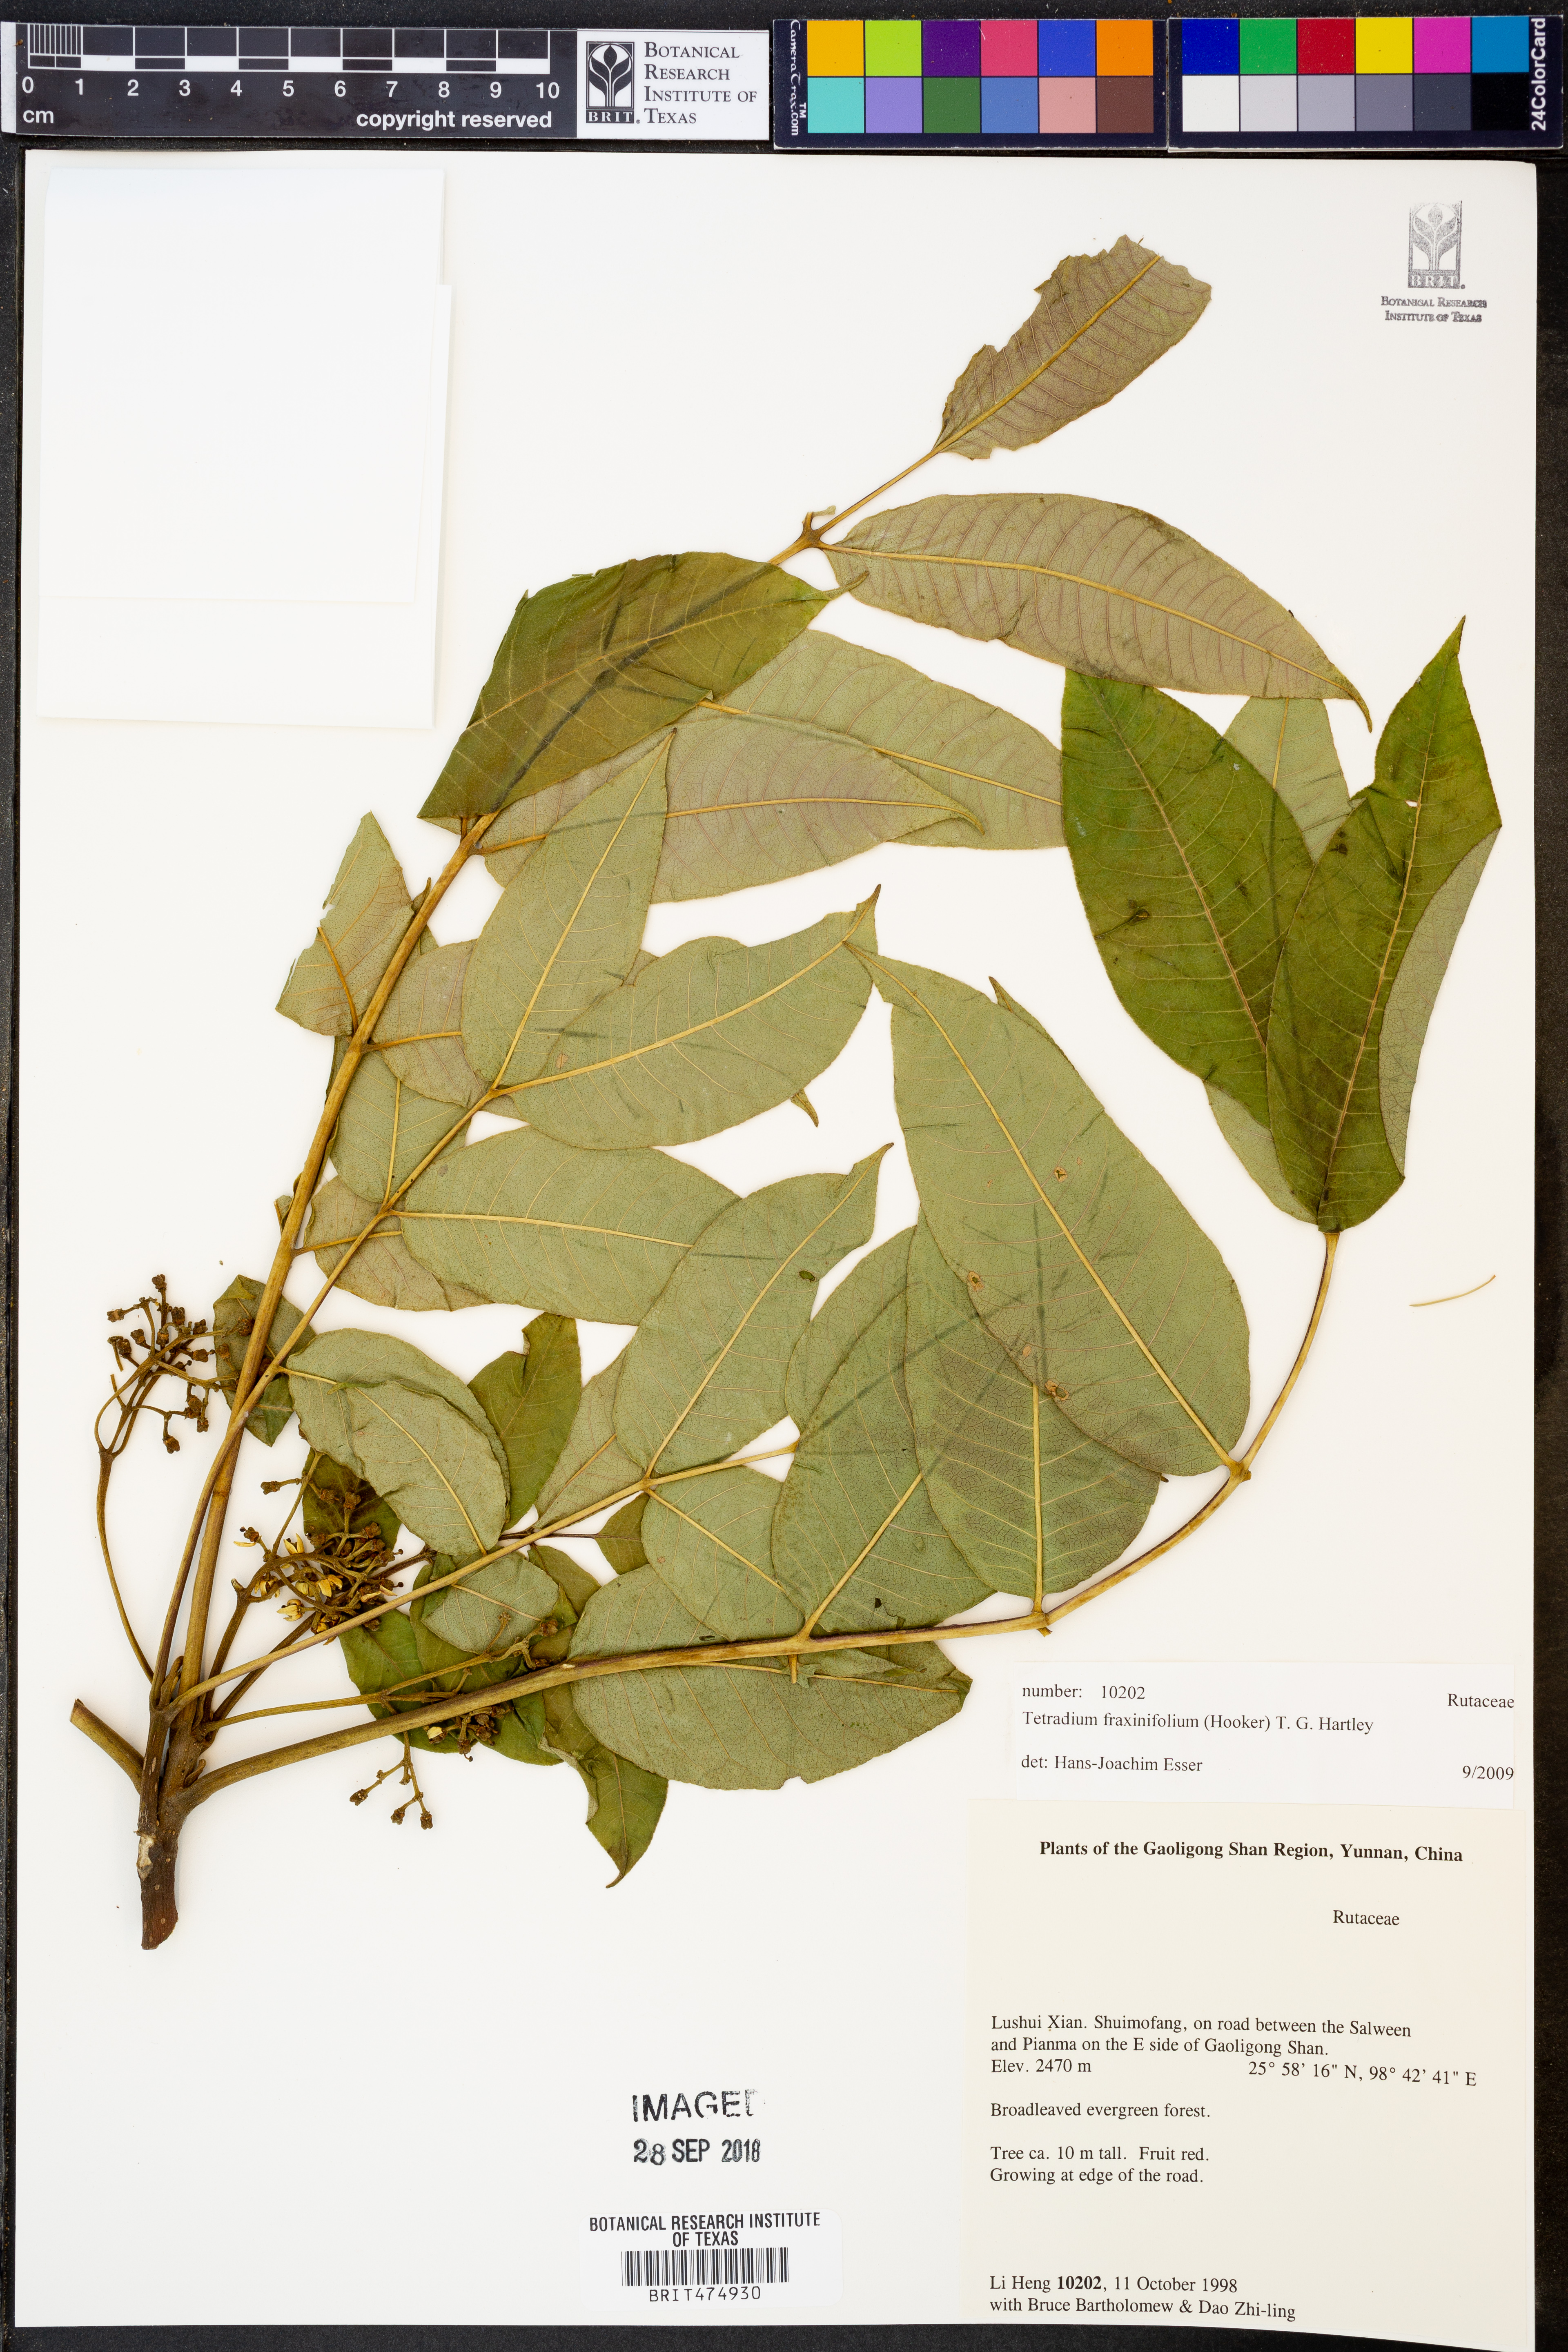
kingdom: Plantae
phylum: Tracheophyta
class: Magnoliopsida
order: Sapindales
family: Rutaceae
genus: Tetradium
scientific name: Tetradium fraxinifolium
